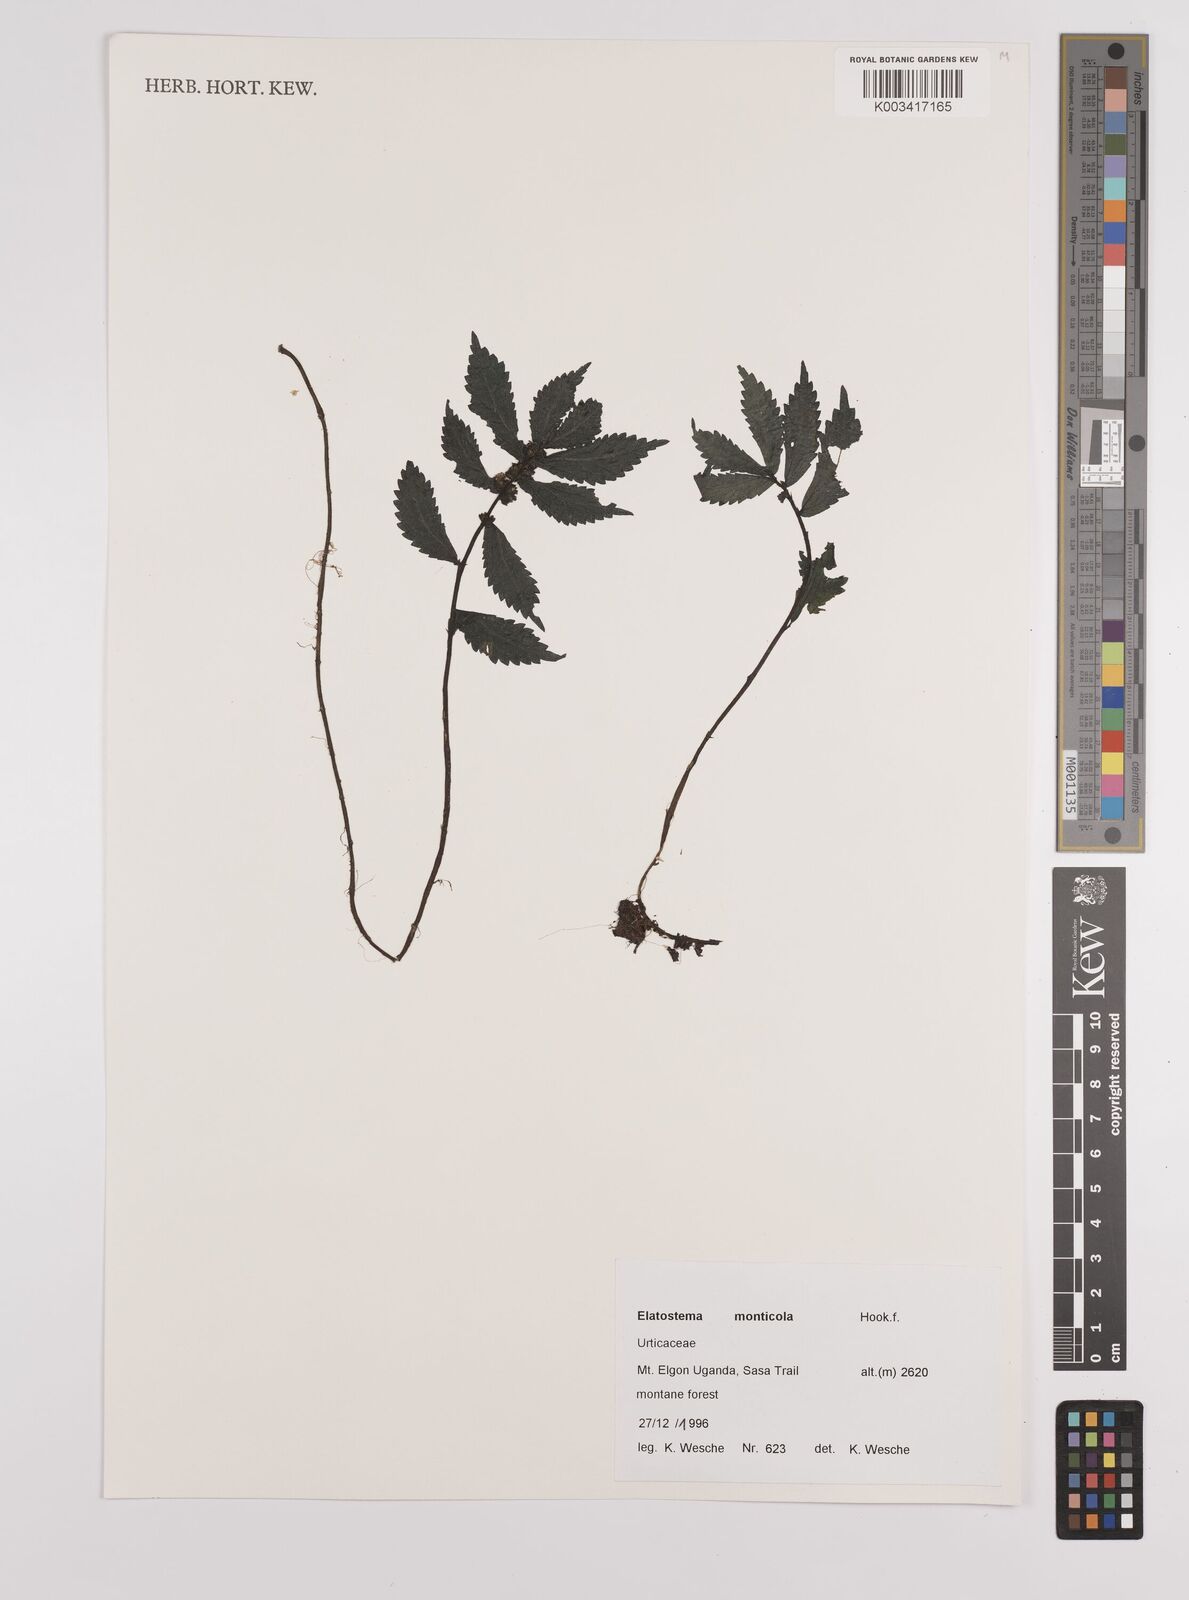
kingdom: Plantae
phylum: Tracheophyta
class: Magnoliopsida
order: Rosales
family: Urticaceae
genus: Elatostema
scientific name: Elatostema monticola
